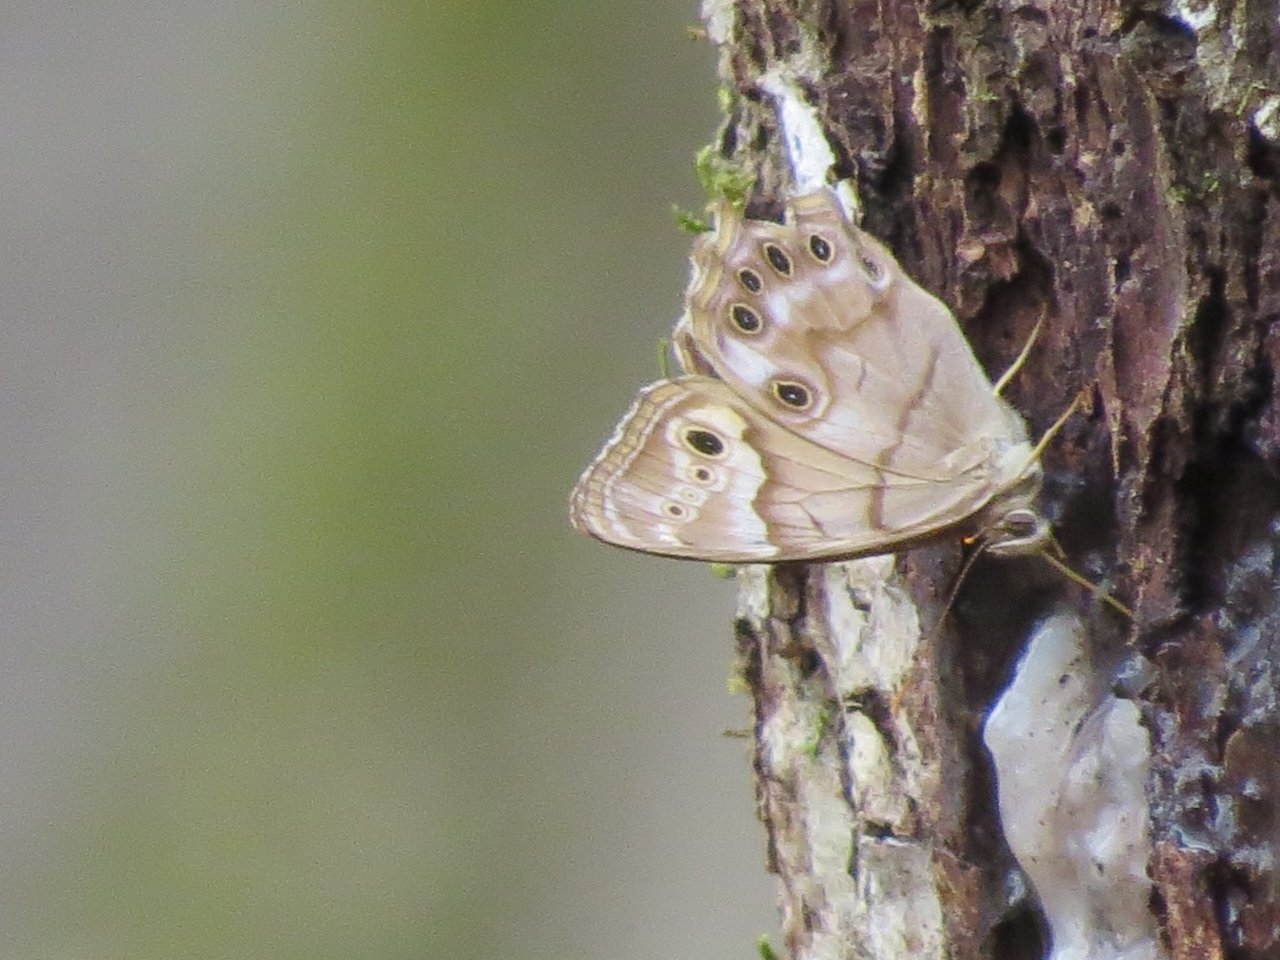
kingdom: Animalia
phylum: Arthropoda
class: Insecta
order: Lepidoptera
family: Nymphalidae
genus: Enodia
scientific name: Enodia portlandia
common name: Southern Pearly Eye
